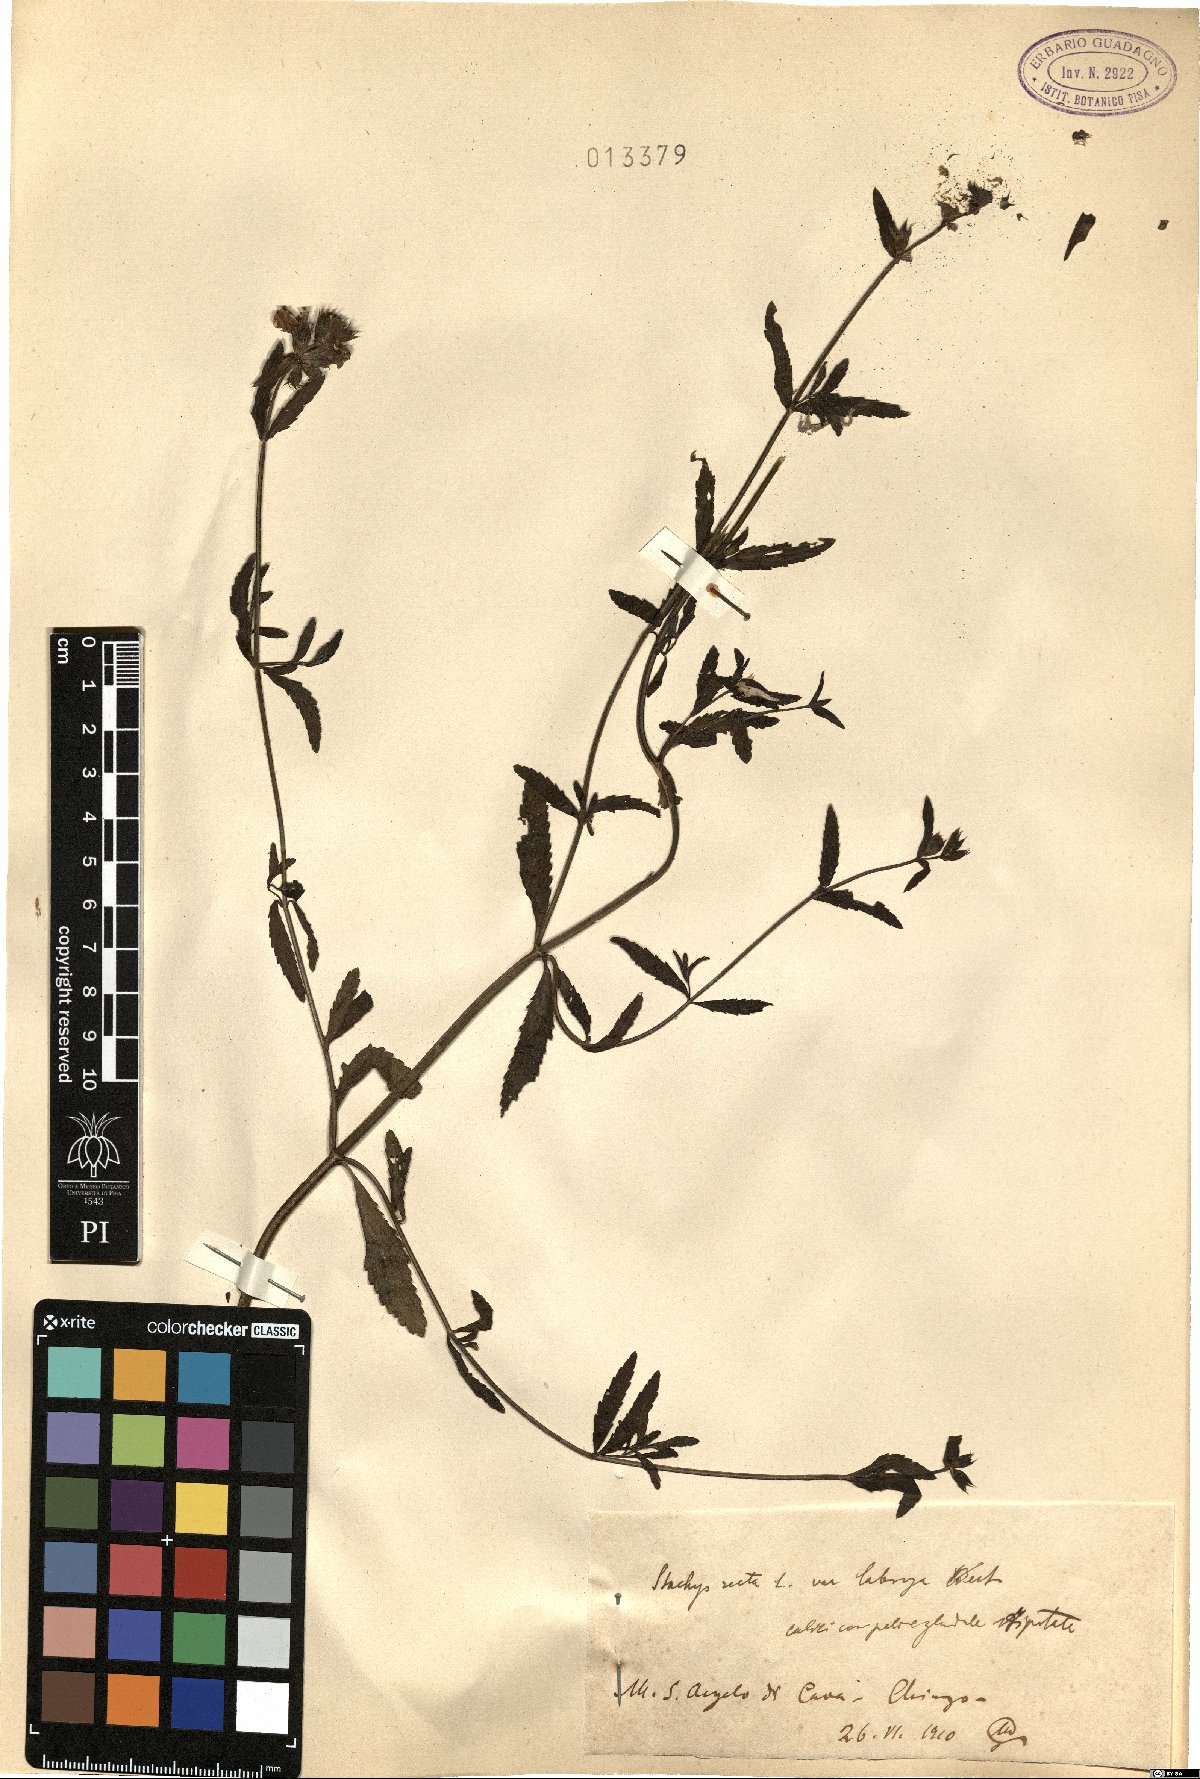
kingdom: Plantae
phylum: Tracheophyta
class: Magnoliopsida
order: Lamiales
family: Lamiaceae
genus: Stachys
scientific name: Stachys recta
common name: Perennial yellow-woundwort
